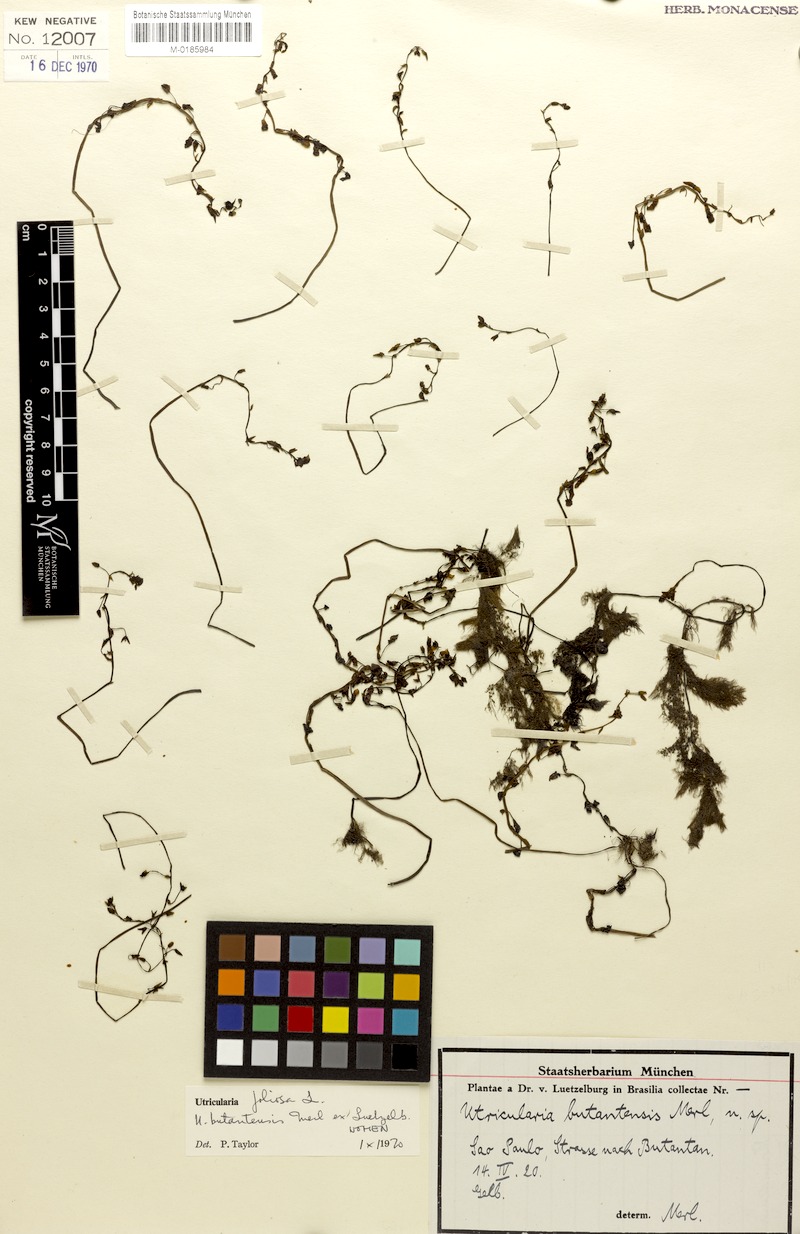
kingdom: Plantae
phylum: Tracheophyta
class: Magnoliopsida
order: Lamiales
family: Lentibulariaceae
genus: Utricularia
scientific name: Utricularia foliosa
